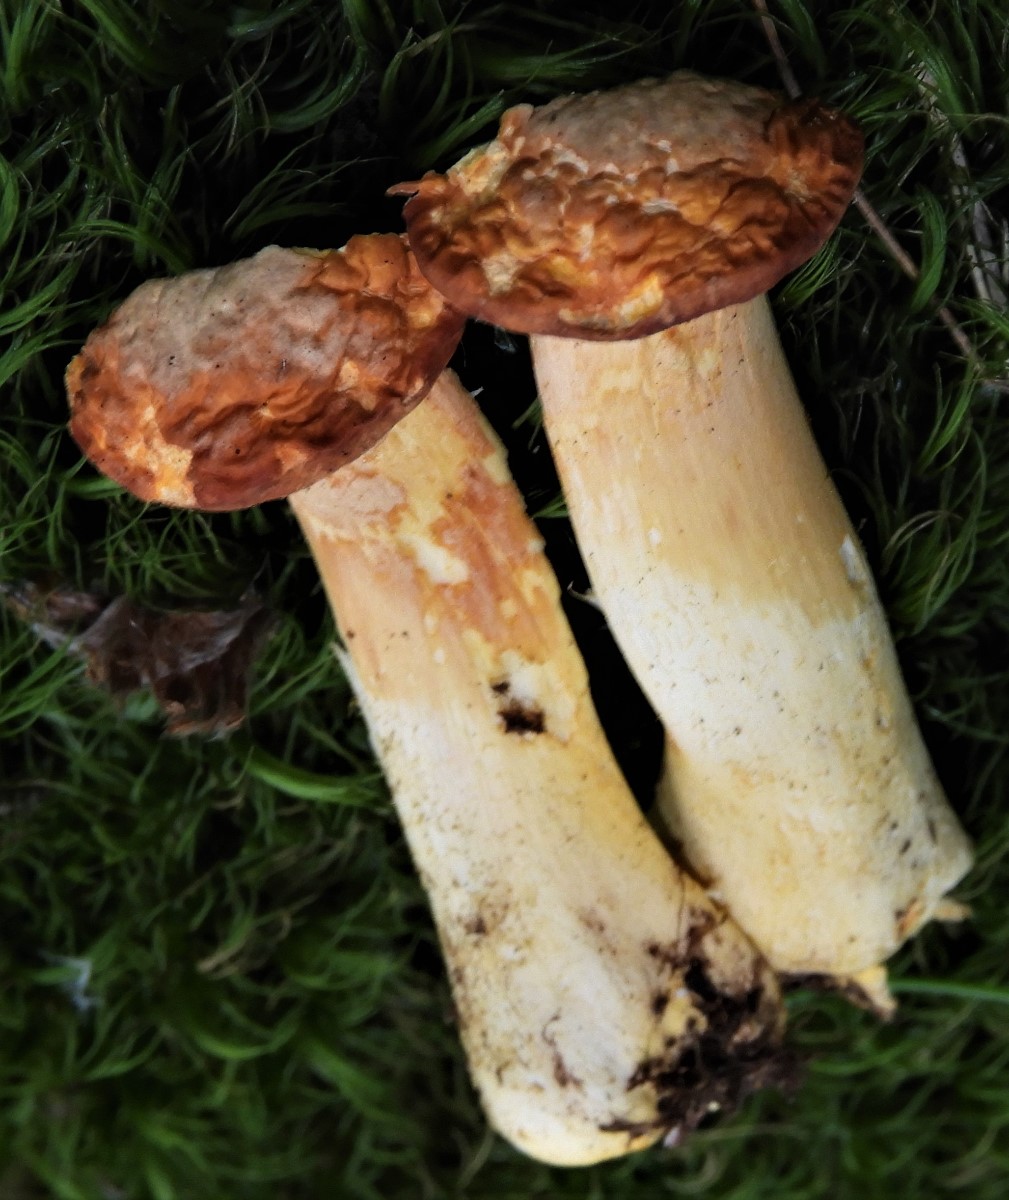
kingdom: Fungi
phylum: Basidiomycota
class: Agaricomycetes
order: Boletales
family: Boletaceae
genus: Boletus
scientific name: Boletus edulis
